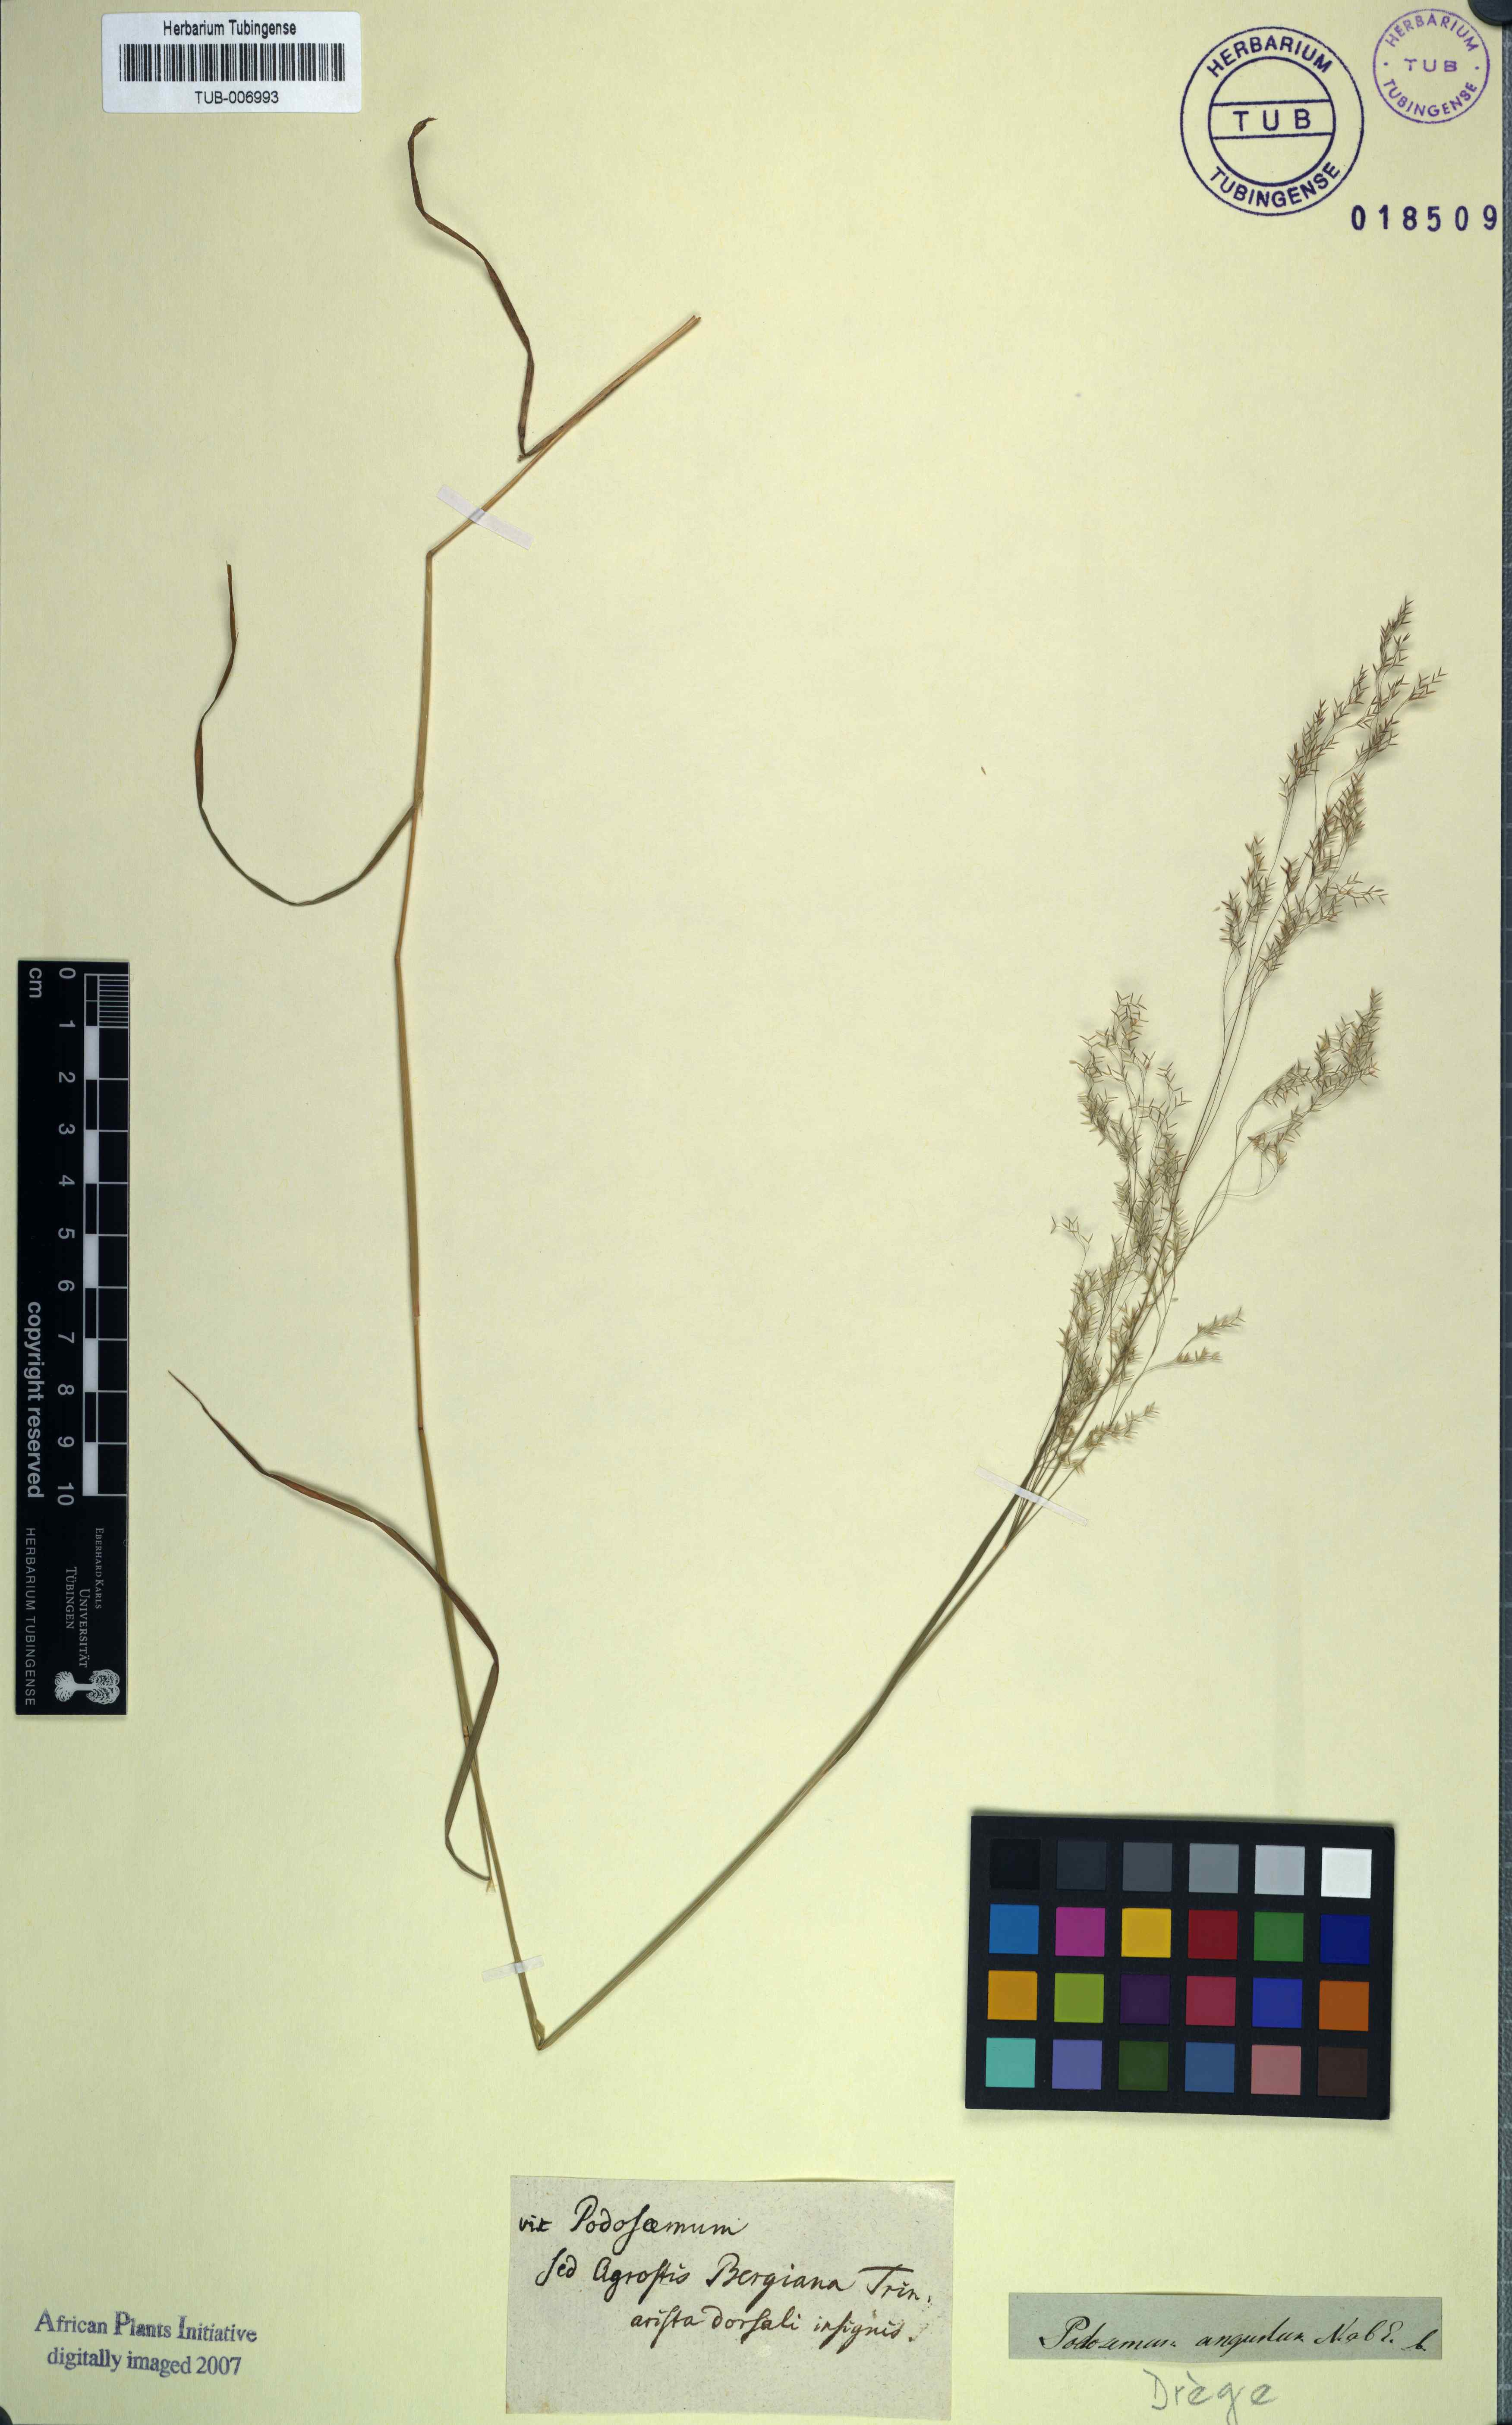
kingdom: Plantae
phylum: Tracheophyta
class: Liliopsida
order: Poales
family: Poaceae
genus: Lachnagrostis
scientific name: Lachnagrostis lachnantha
